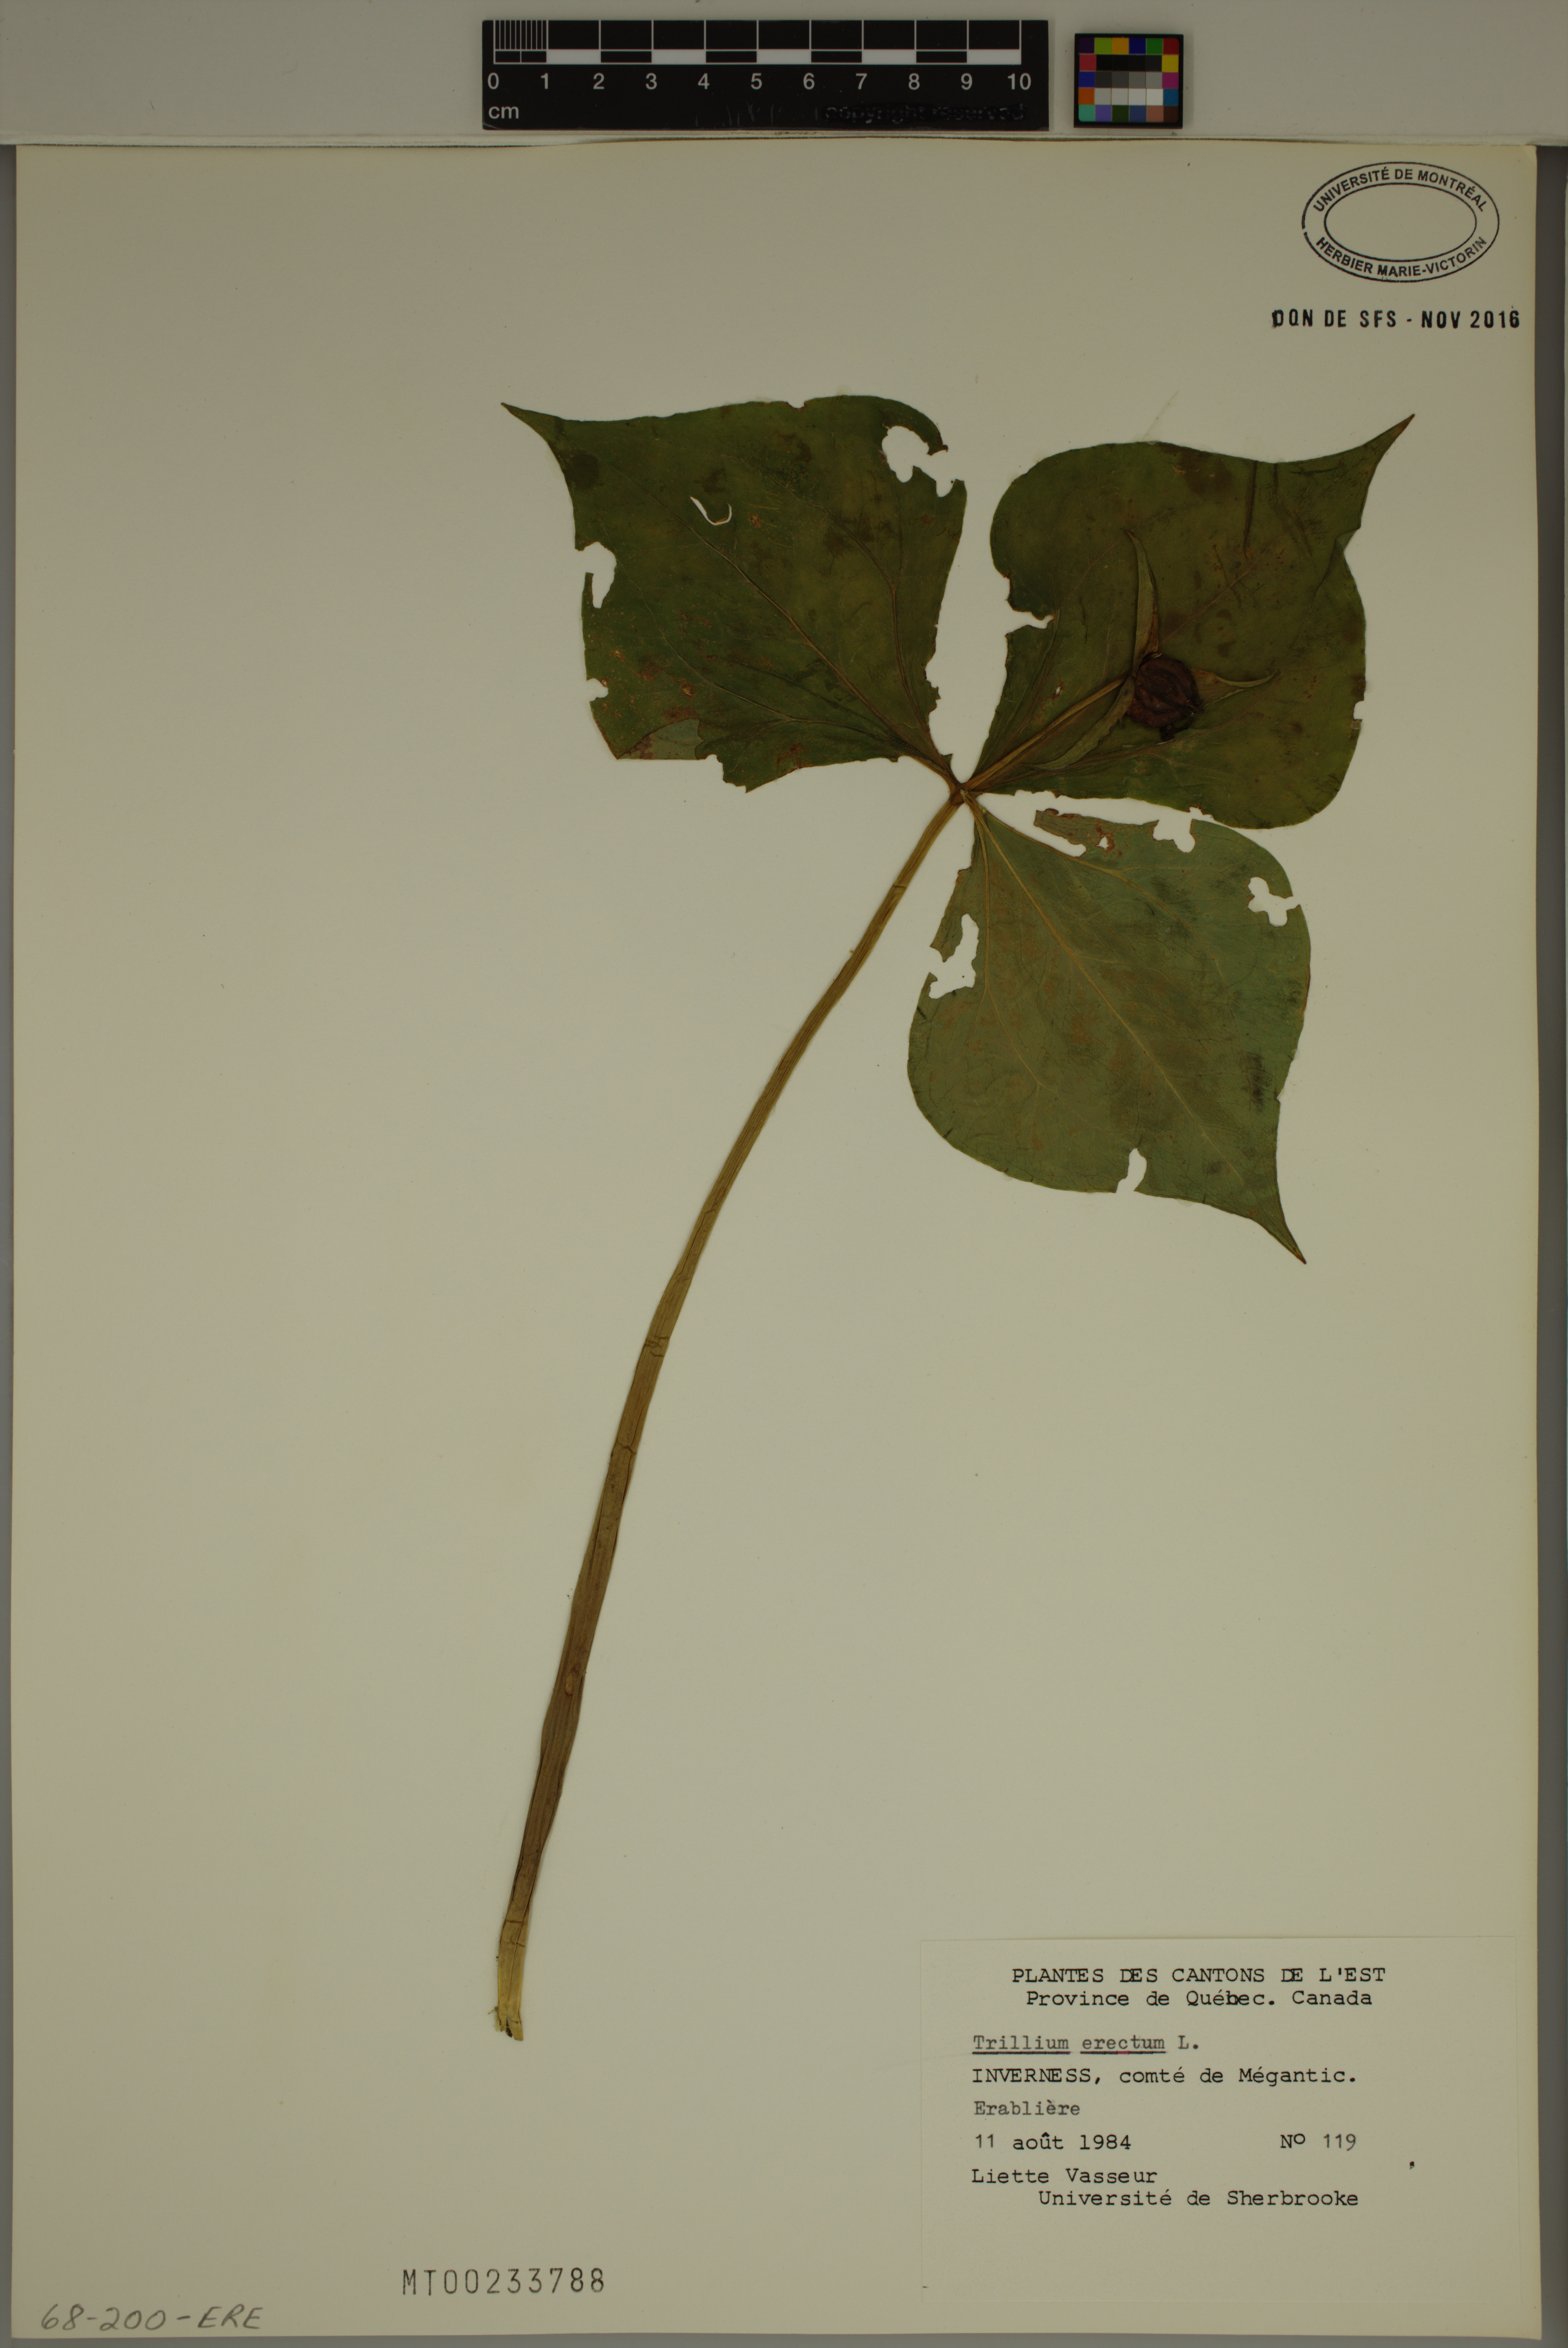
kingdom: Plantae
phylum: Tracheophyta
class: Liliopsida
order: Liliales
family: Melanthiaceae
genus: Trillium
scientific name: Trillium erectum
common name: Purple trillium
